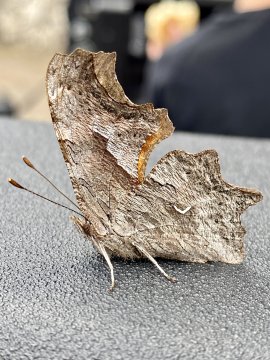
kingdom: Animalia
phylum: Arthropoda
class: Insecta
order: Lepidoptera
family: Nymphalidae
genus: Polygonia
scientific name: Polygonia gracilis
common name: Hoary Comma
